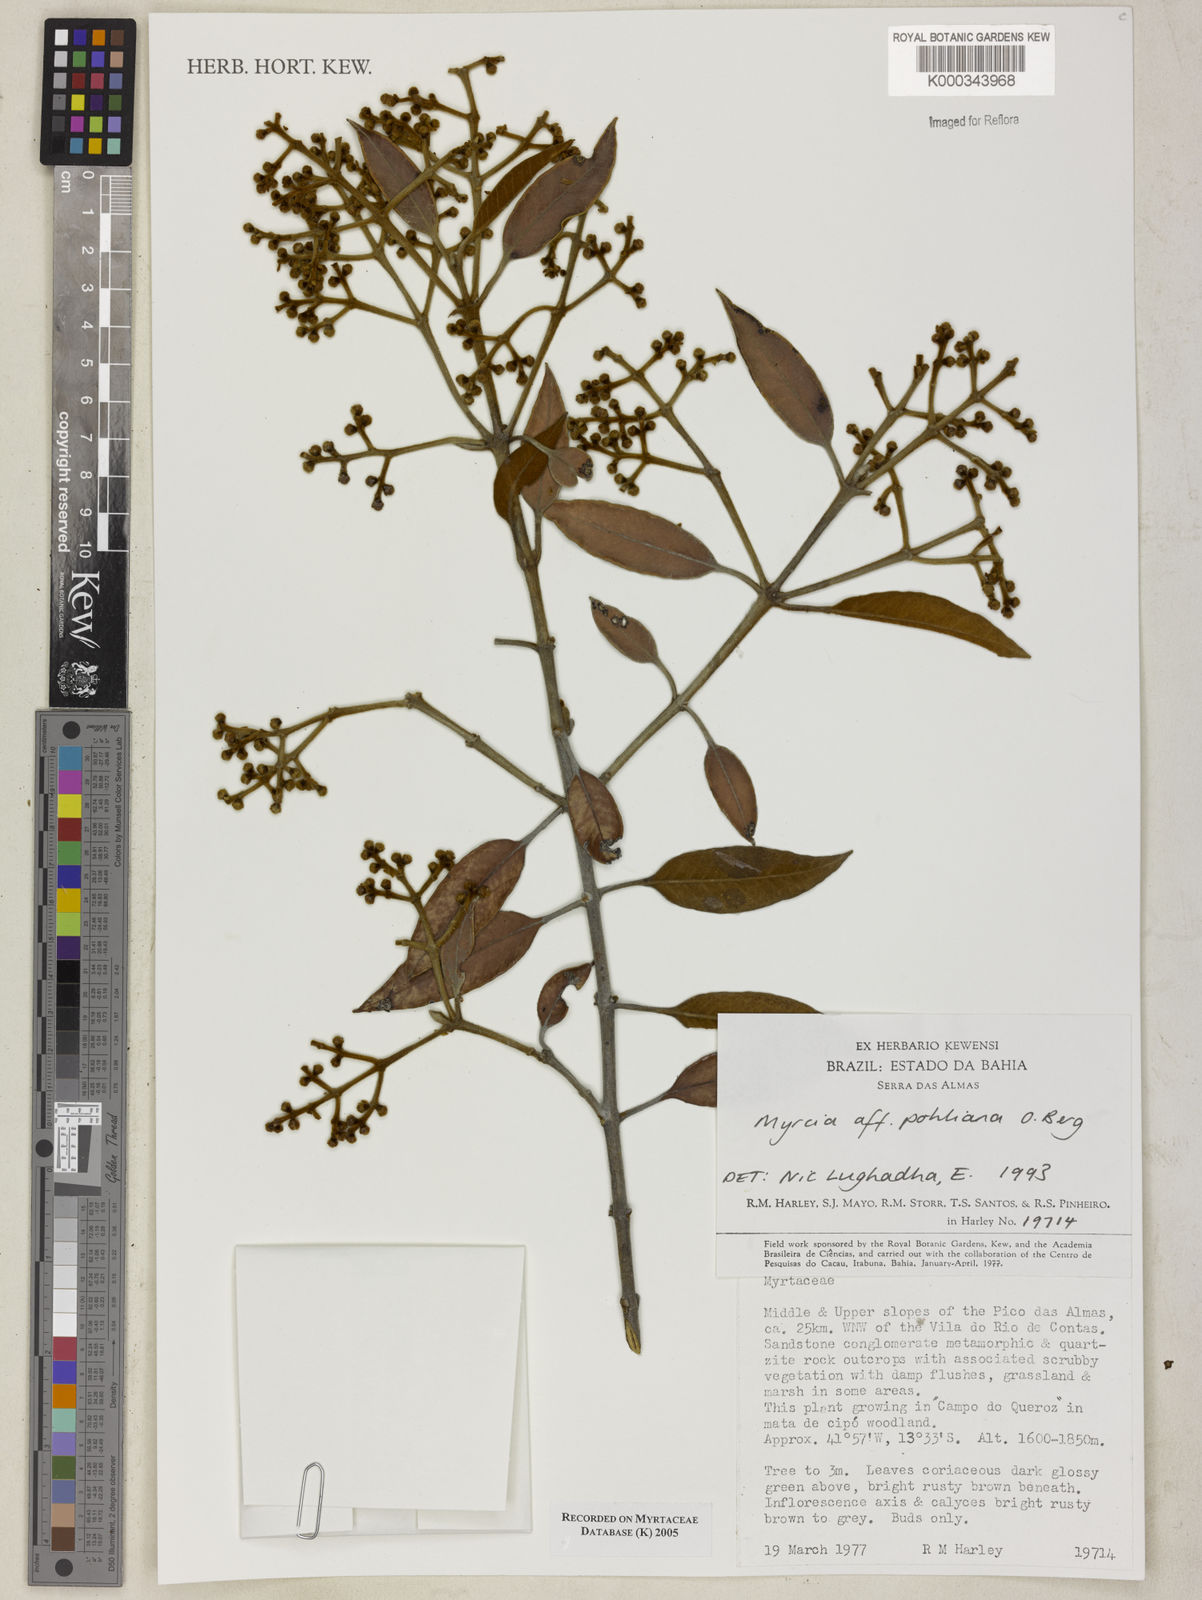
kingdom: Plantae
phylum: Tracheophyta
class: Magnoliopsida
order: Myrtales
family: Myrtaceae
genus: Myrcia
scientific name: Myrcia splendens
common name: Surinam cherry
